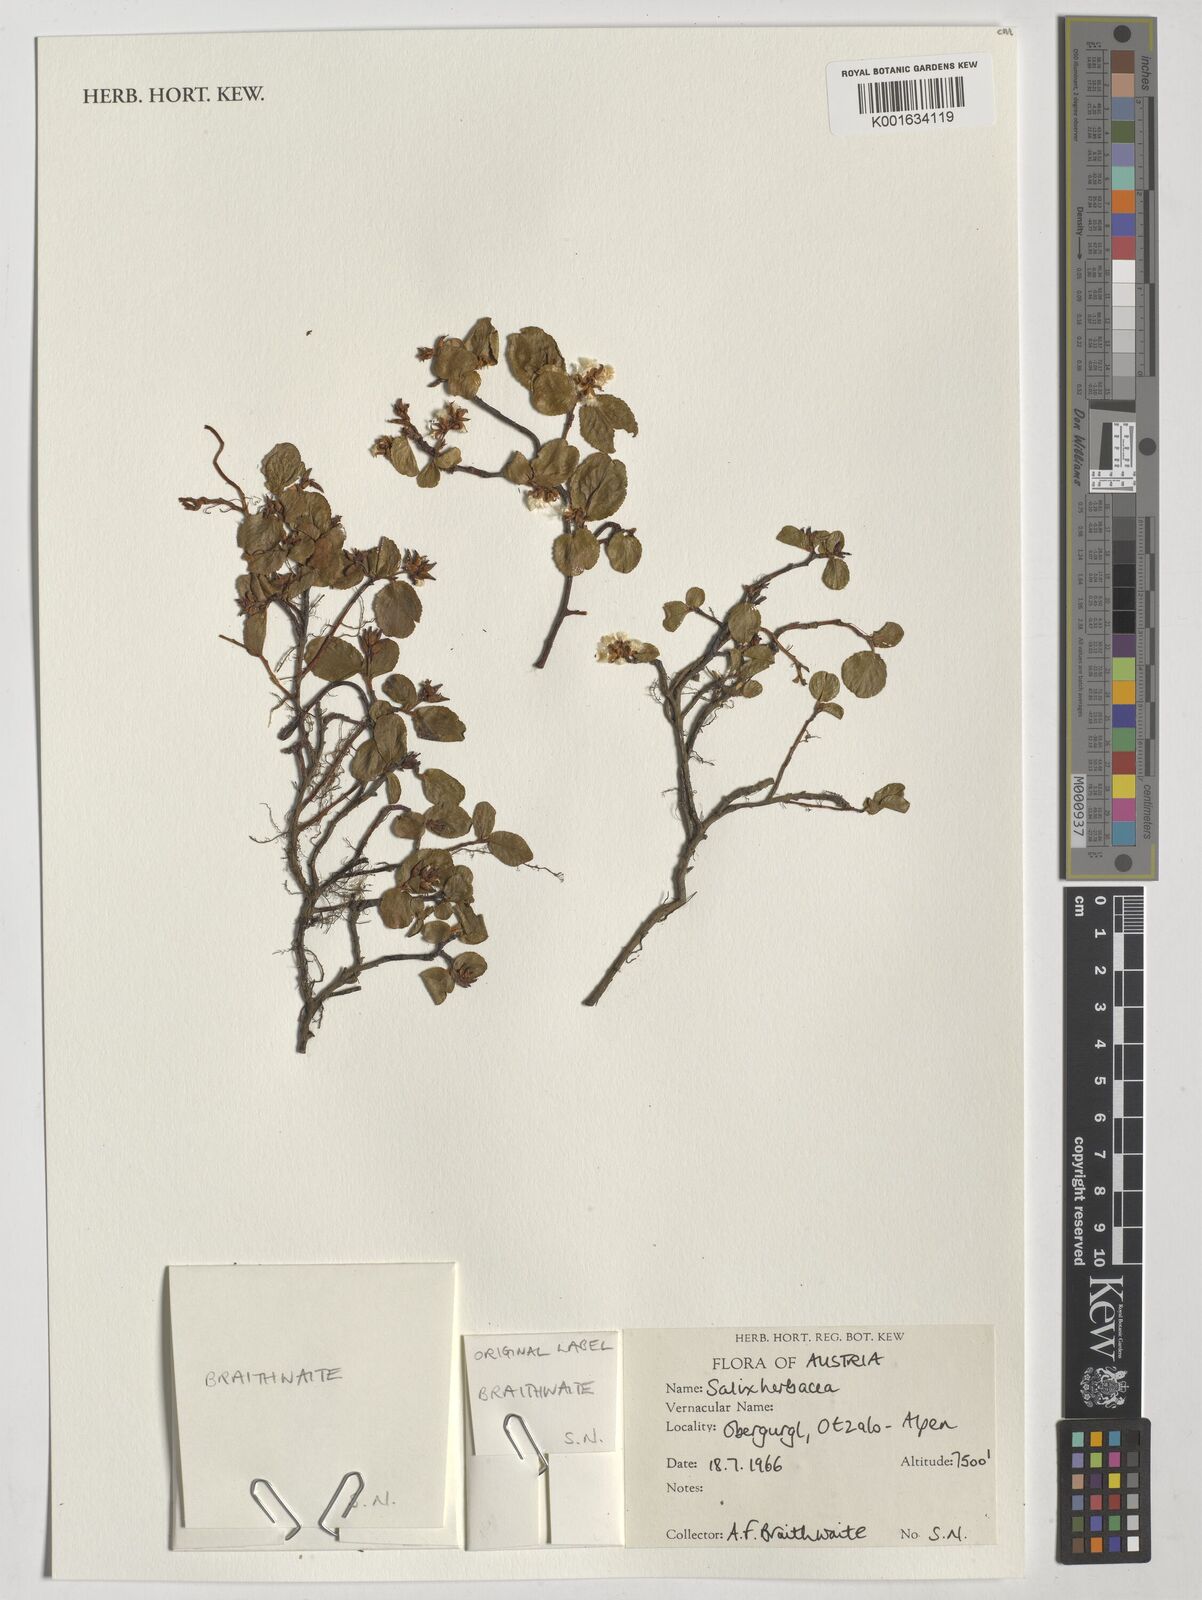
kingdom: Plantae
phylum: Tracheophyta
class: Magnoliopsida
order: Malpighiales
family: Salicaceae
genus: Salix
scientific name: Salix herbacea
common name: Dwarf willow
